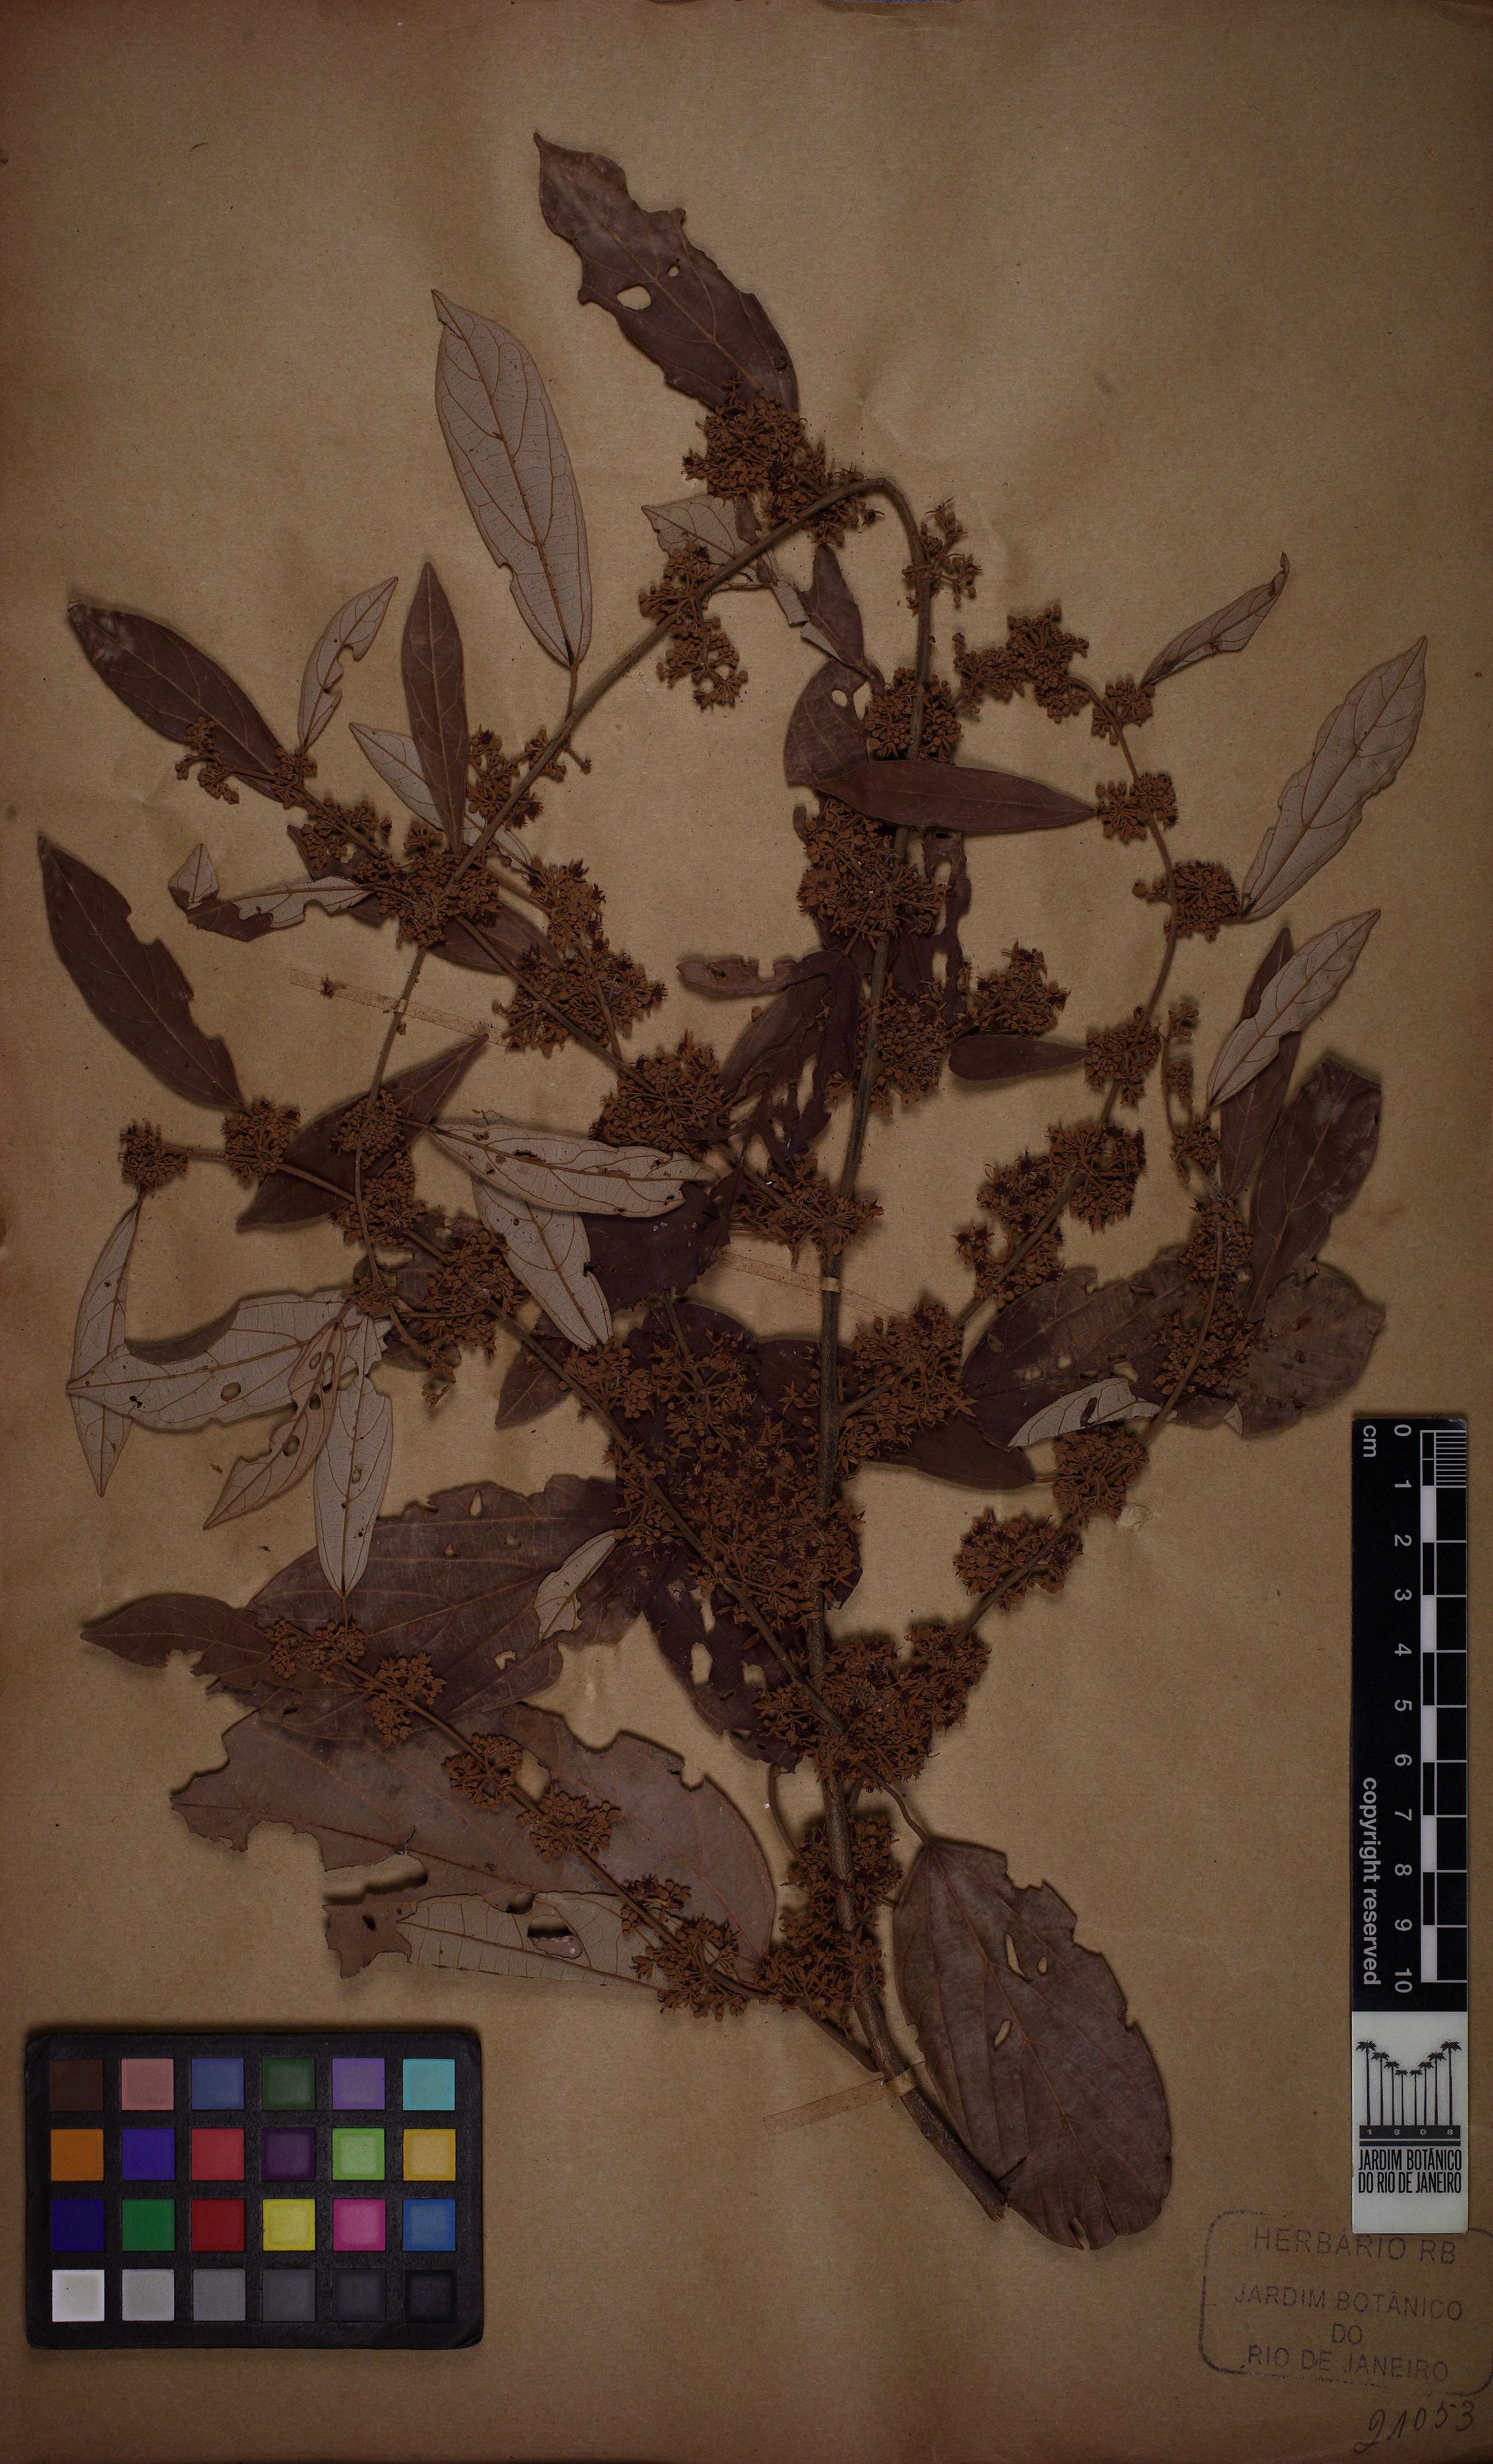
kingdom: Plantae
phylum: Tracheophyta
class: Magnoliopsida
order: Malvales
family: Malvaceae
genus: Byttneria
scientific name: Byttneria fulva
